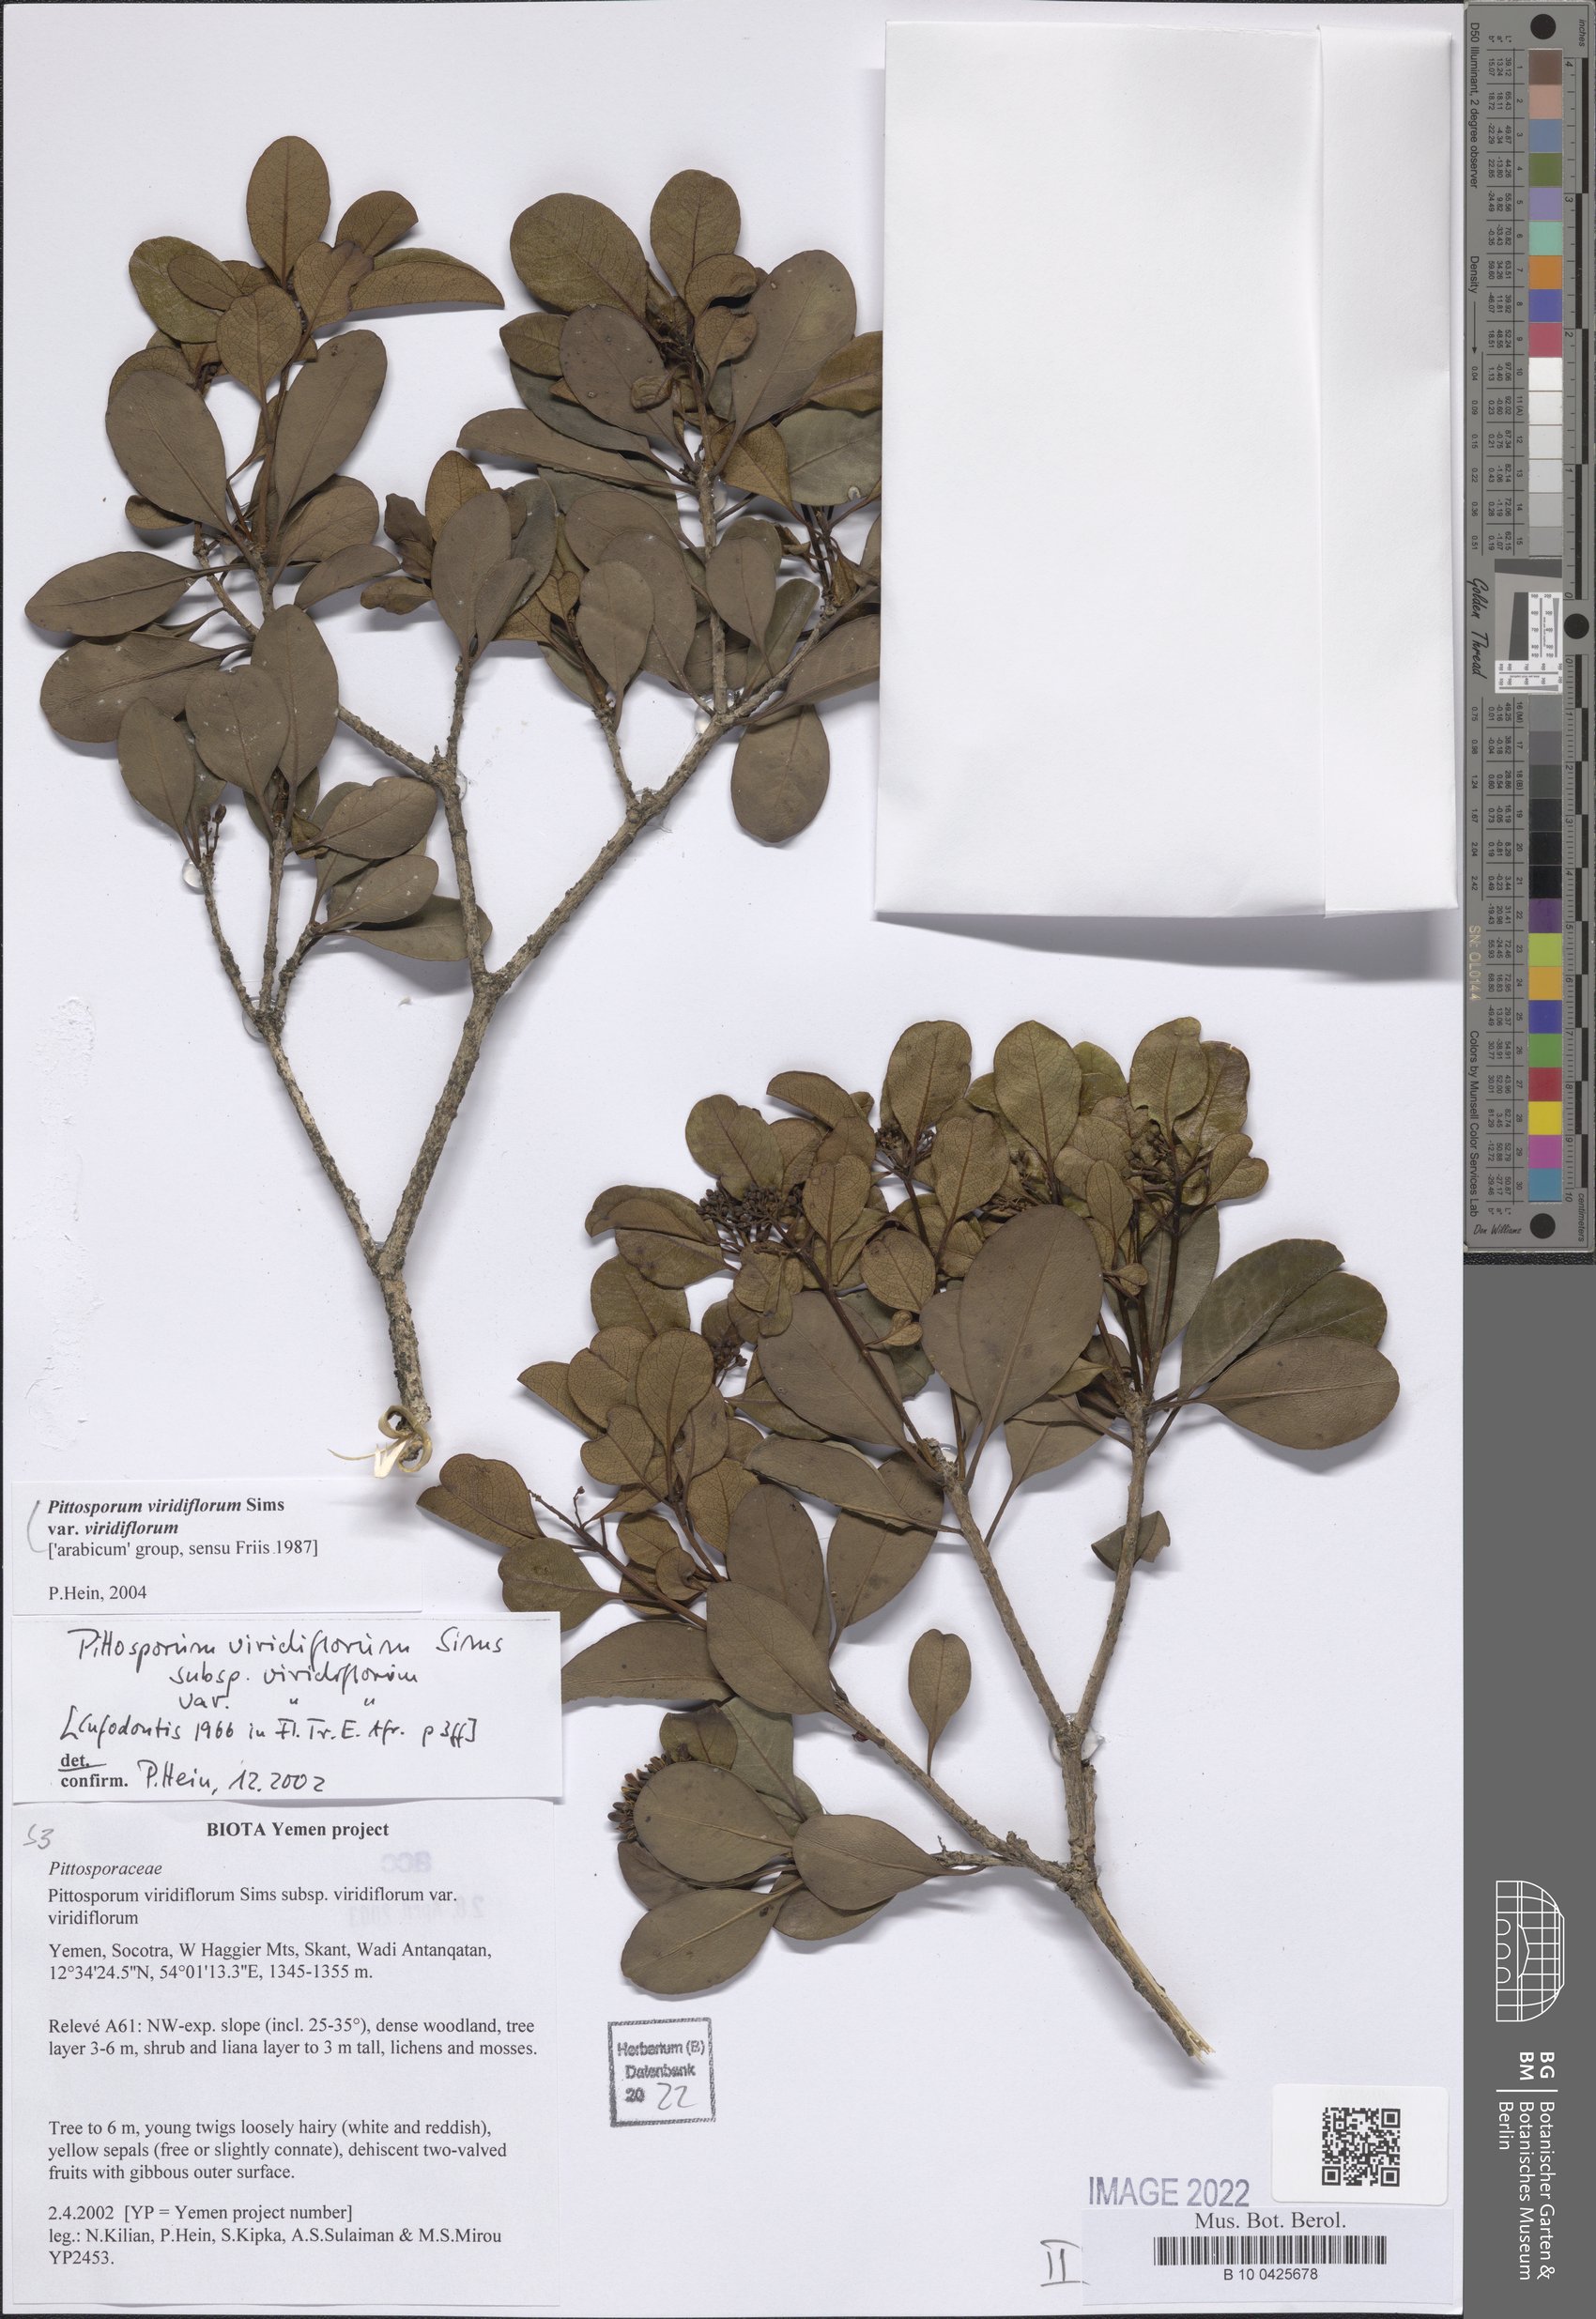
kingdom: Plantae
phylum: Tracheophyta
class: Magnoliopsida
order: Apiales
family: Pittosporaceae
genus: Pittosporum
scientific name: Pittosporum viridiflorum
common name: Cape cheesewood
